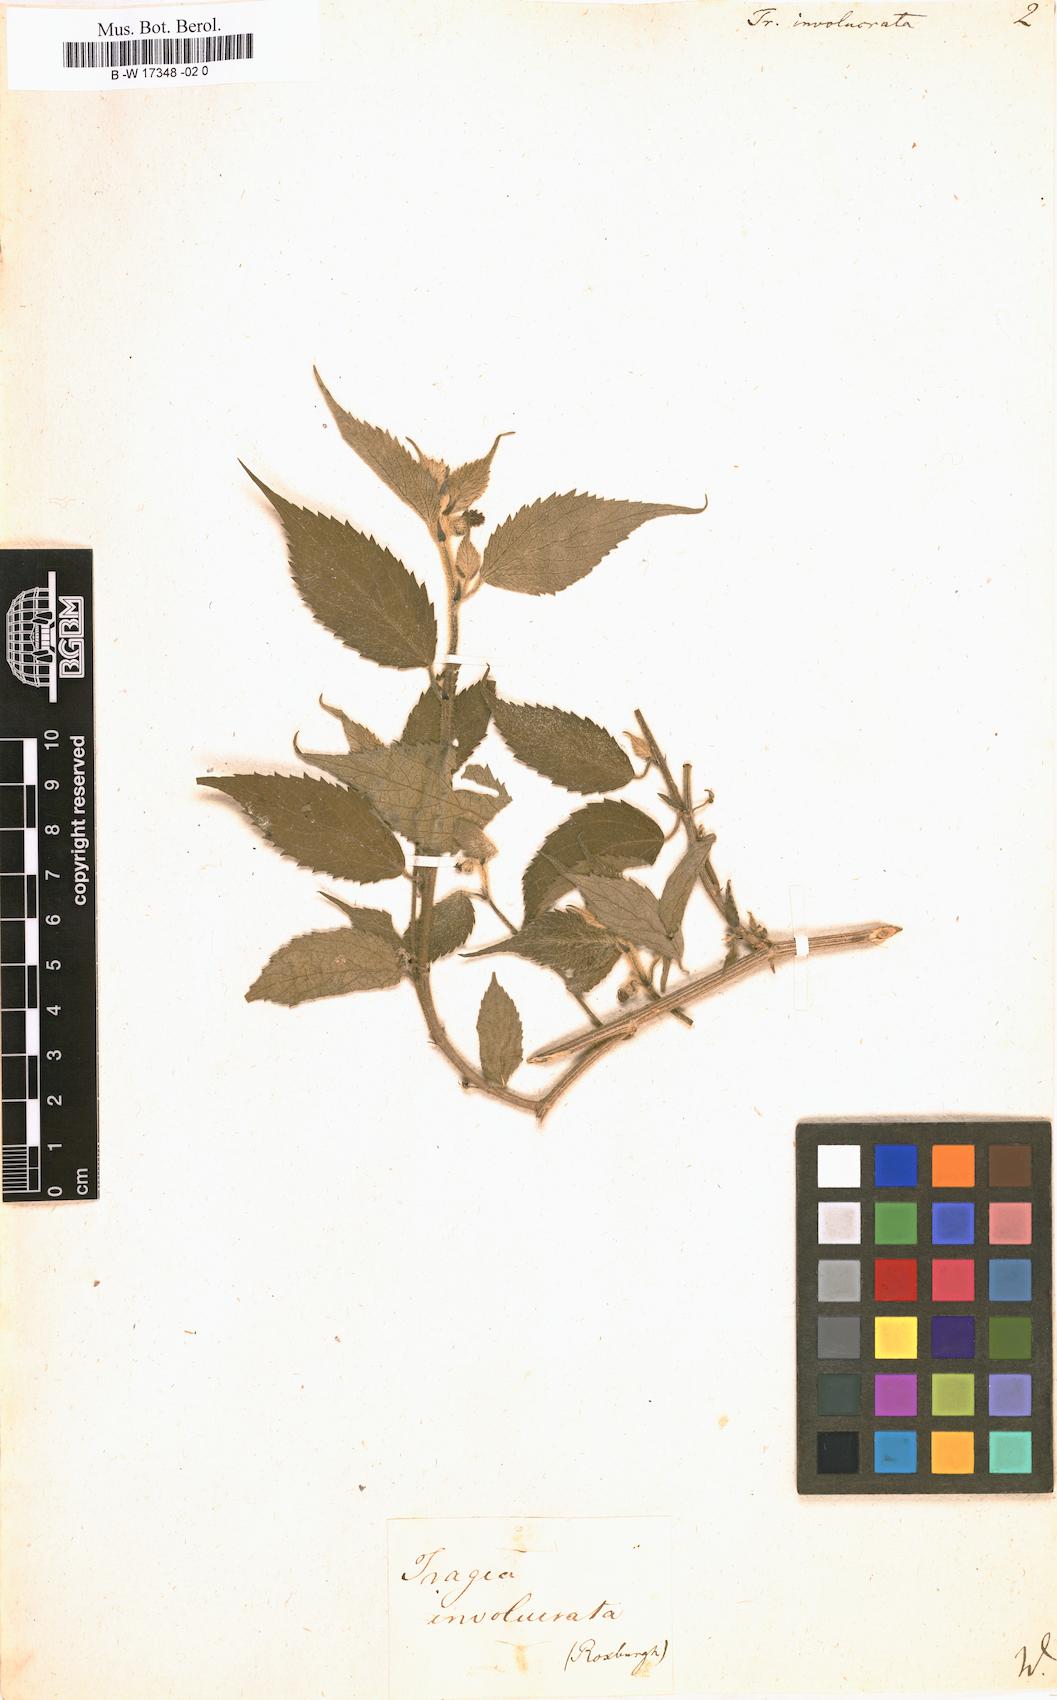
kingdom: Plantae
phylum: Tracheophyta
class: Magnoliopsida
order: Malpighiales
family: Euphorbiaceae
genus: Tragia
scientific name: Tragia involucrata
